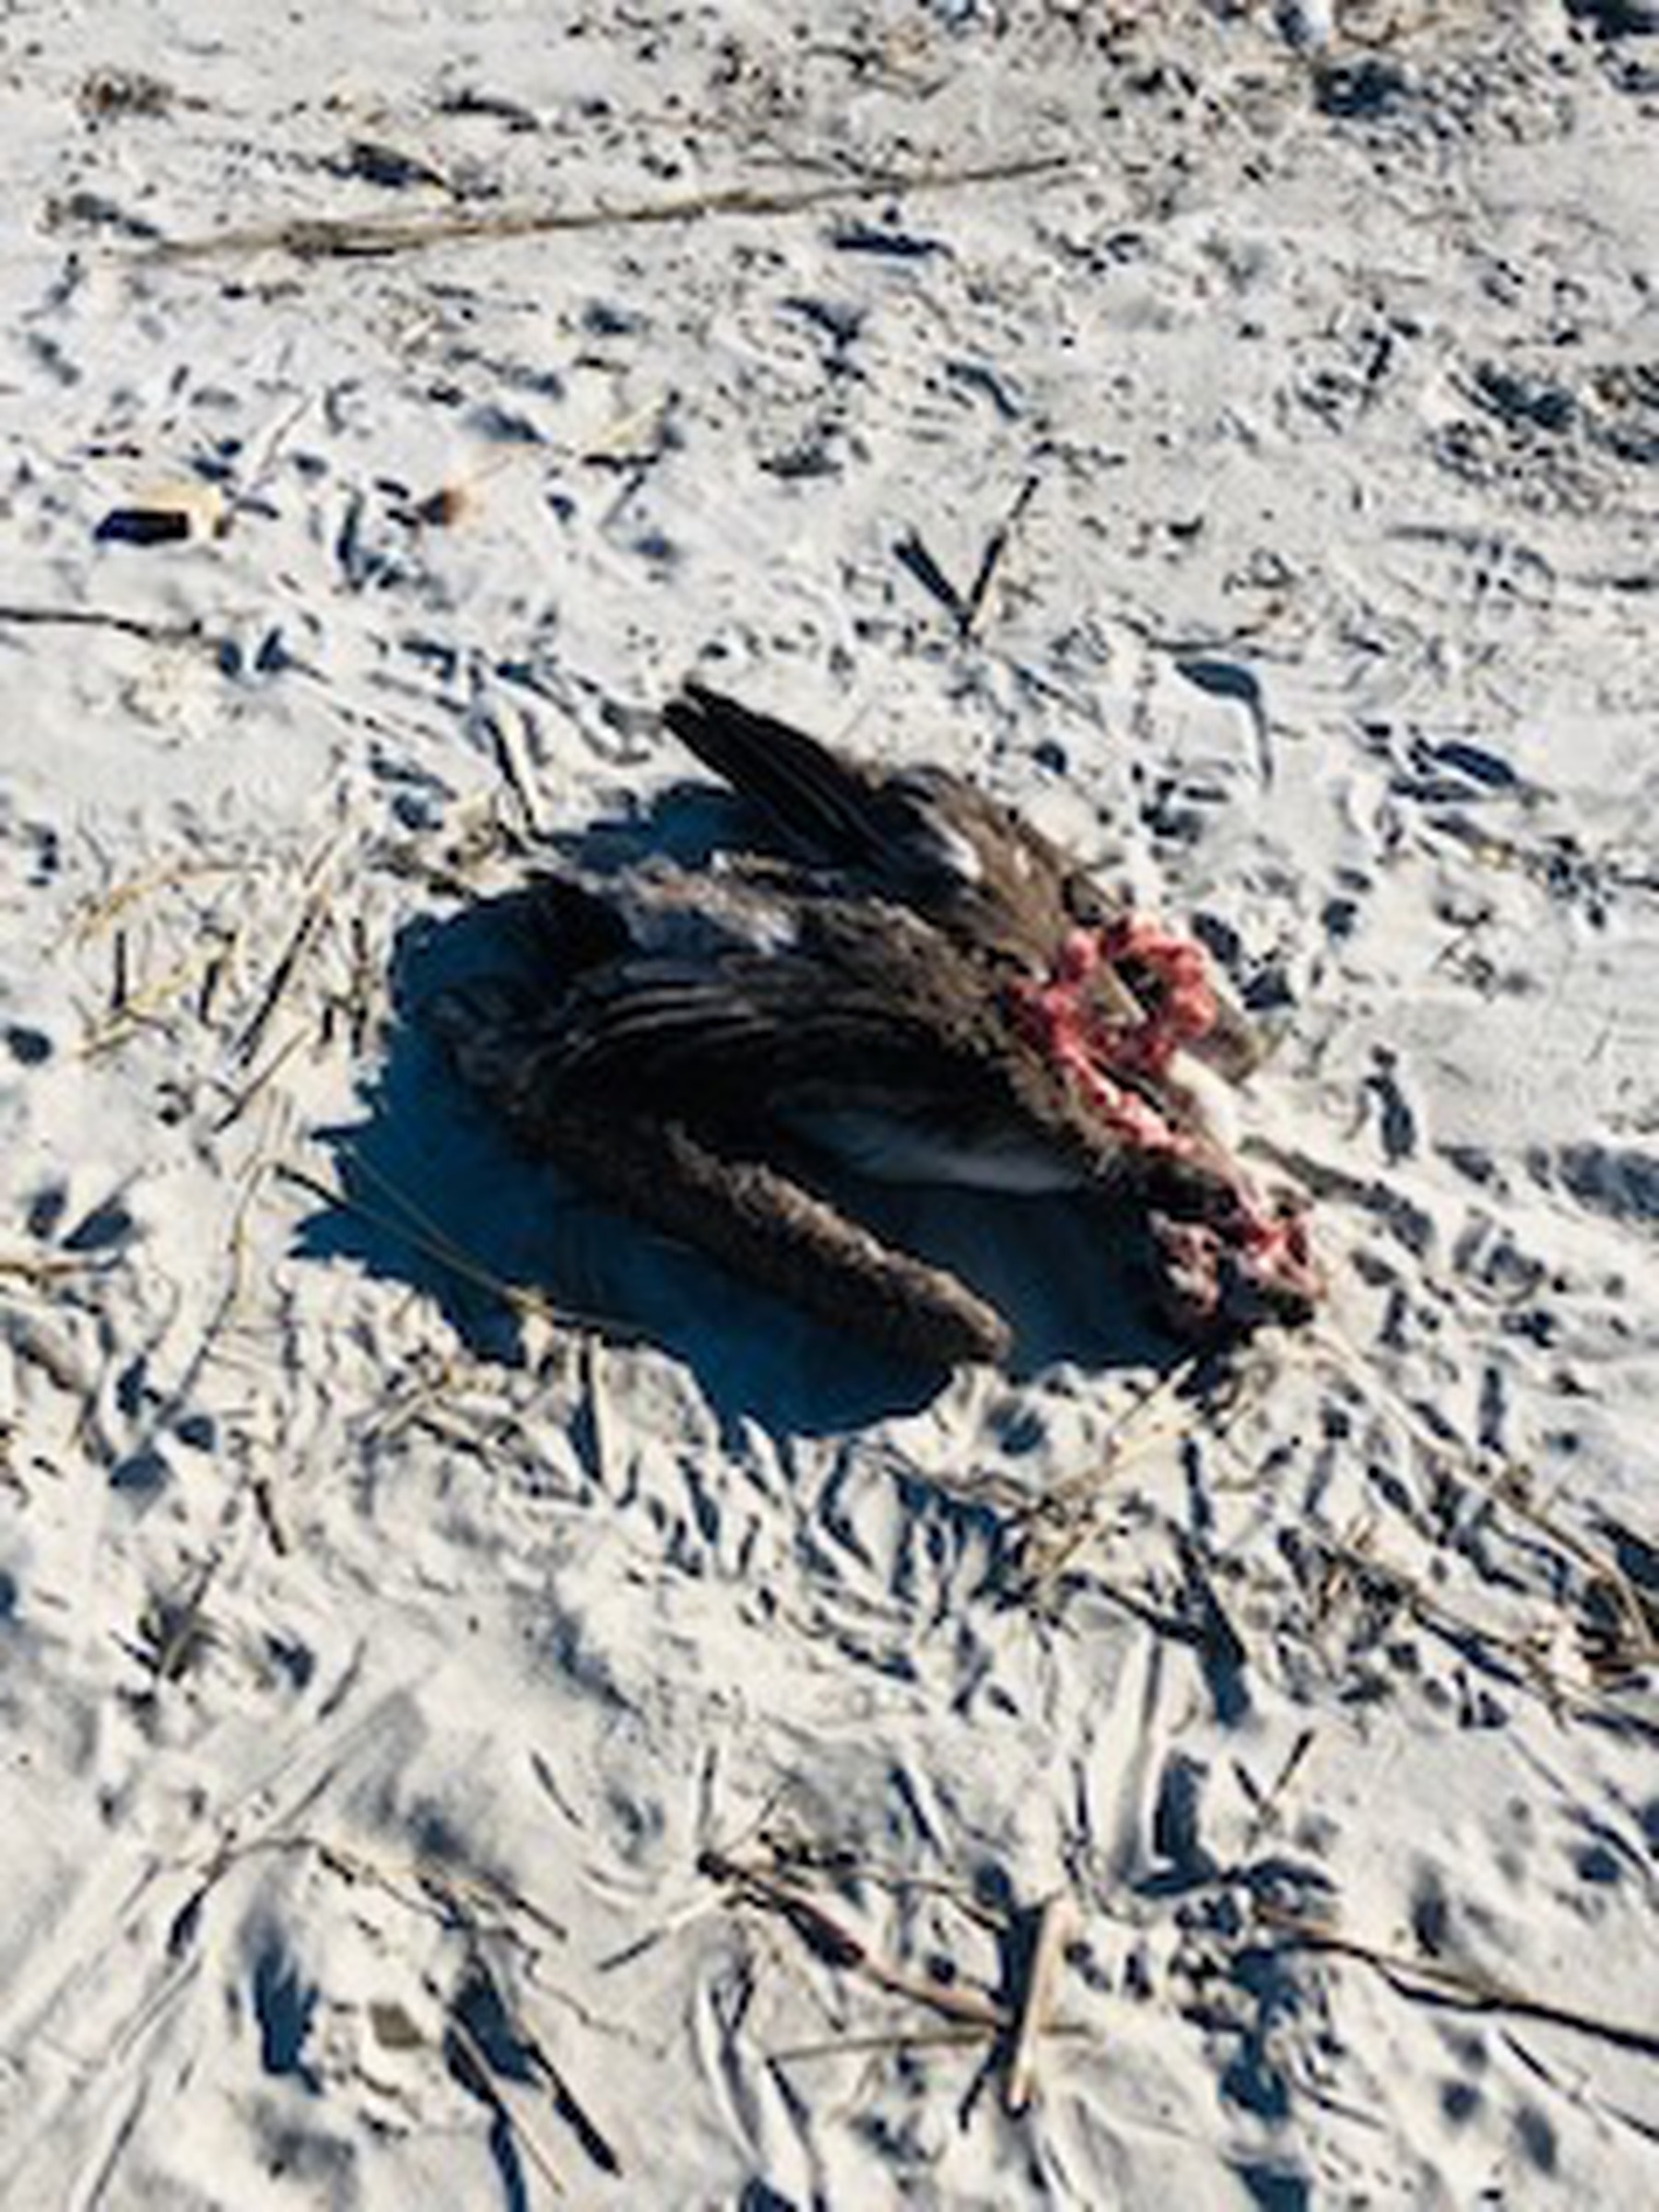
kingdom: Animalia
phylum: Chordata
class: Aves
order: Pelecaniformes
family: Pelecanidae
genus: Pelecanus
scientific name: Pelecanus occidentalis
